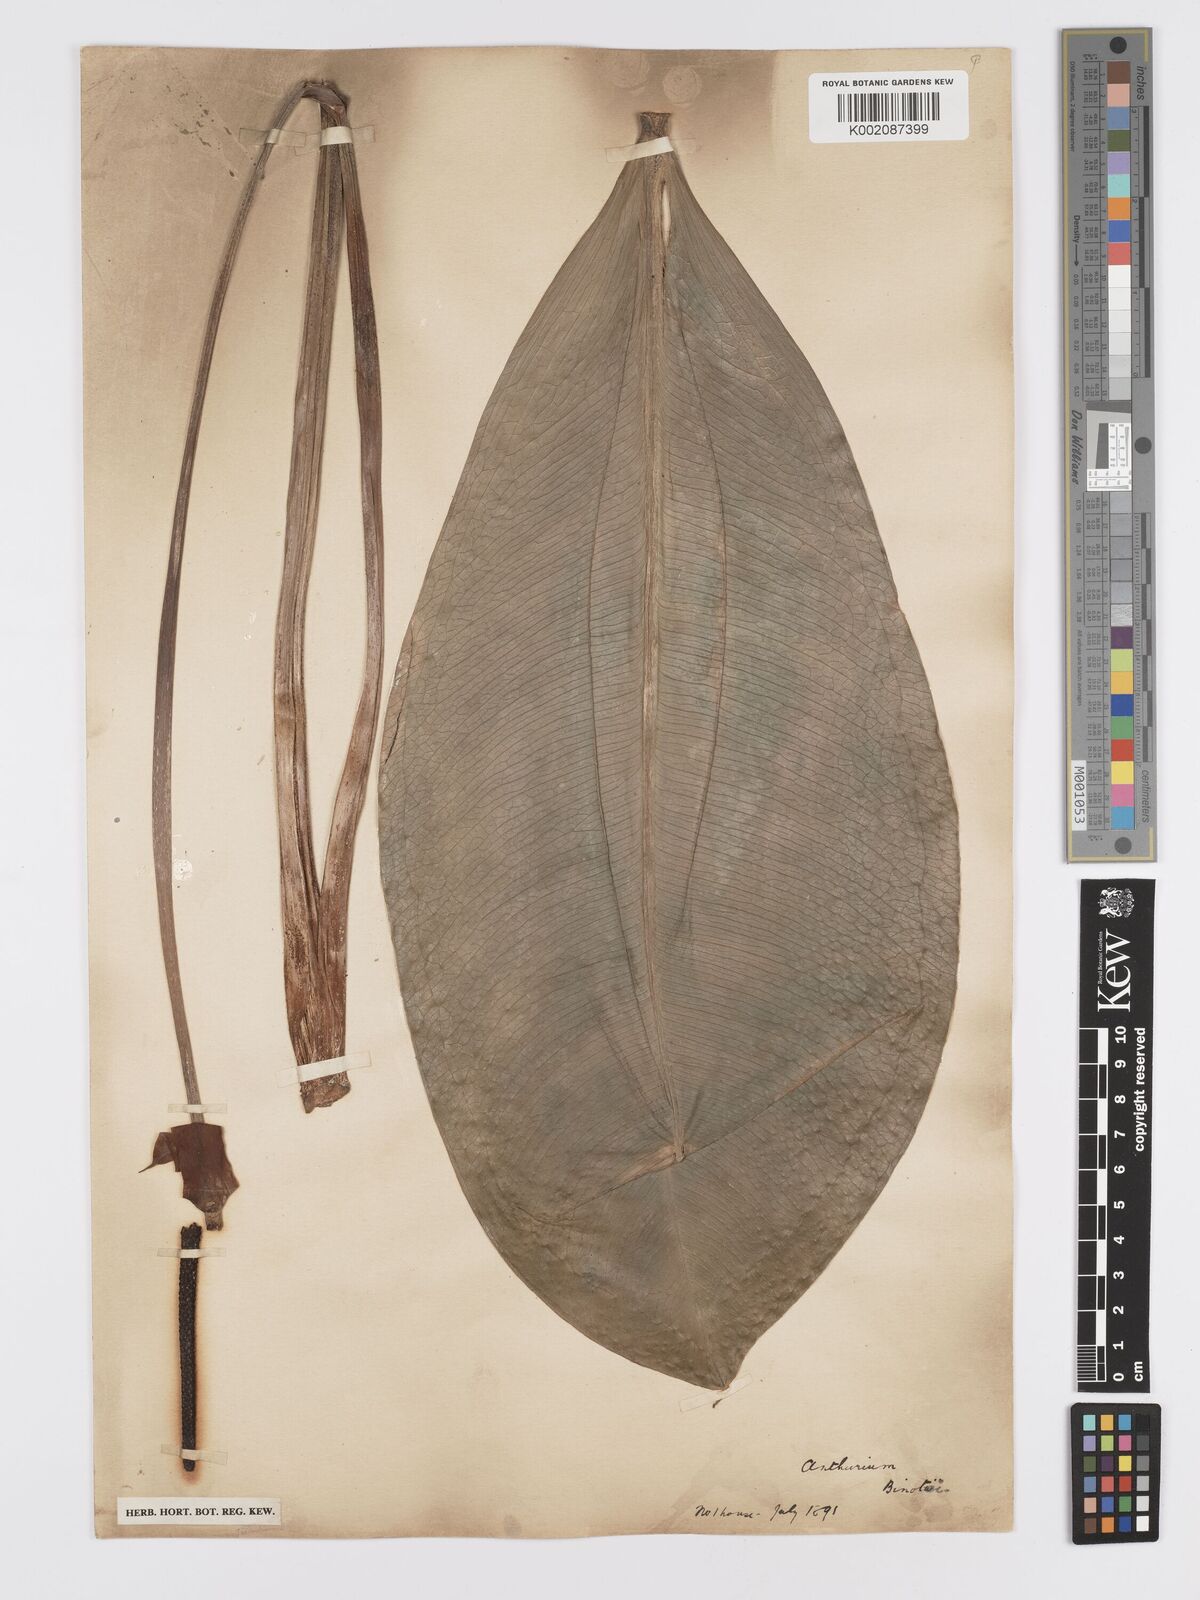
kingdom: Plantae
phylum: Tracheophyta
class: Liliopsida
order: Alismatales
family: Araceae
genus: Anthurium
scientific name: Anthurium binotii
